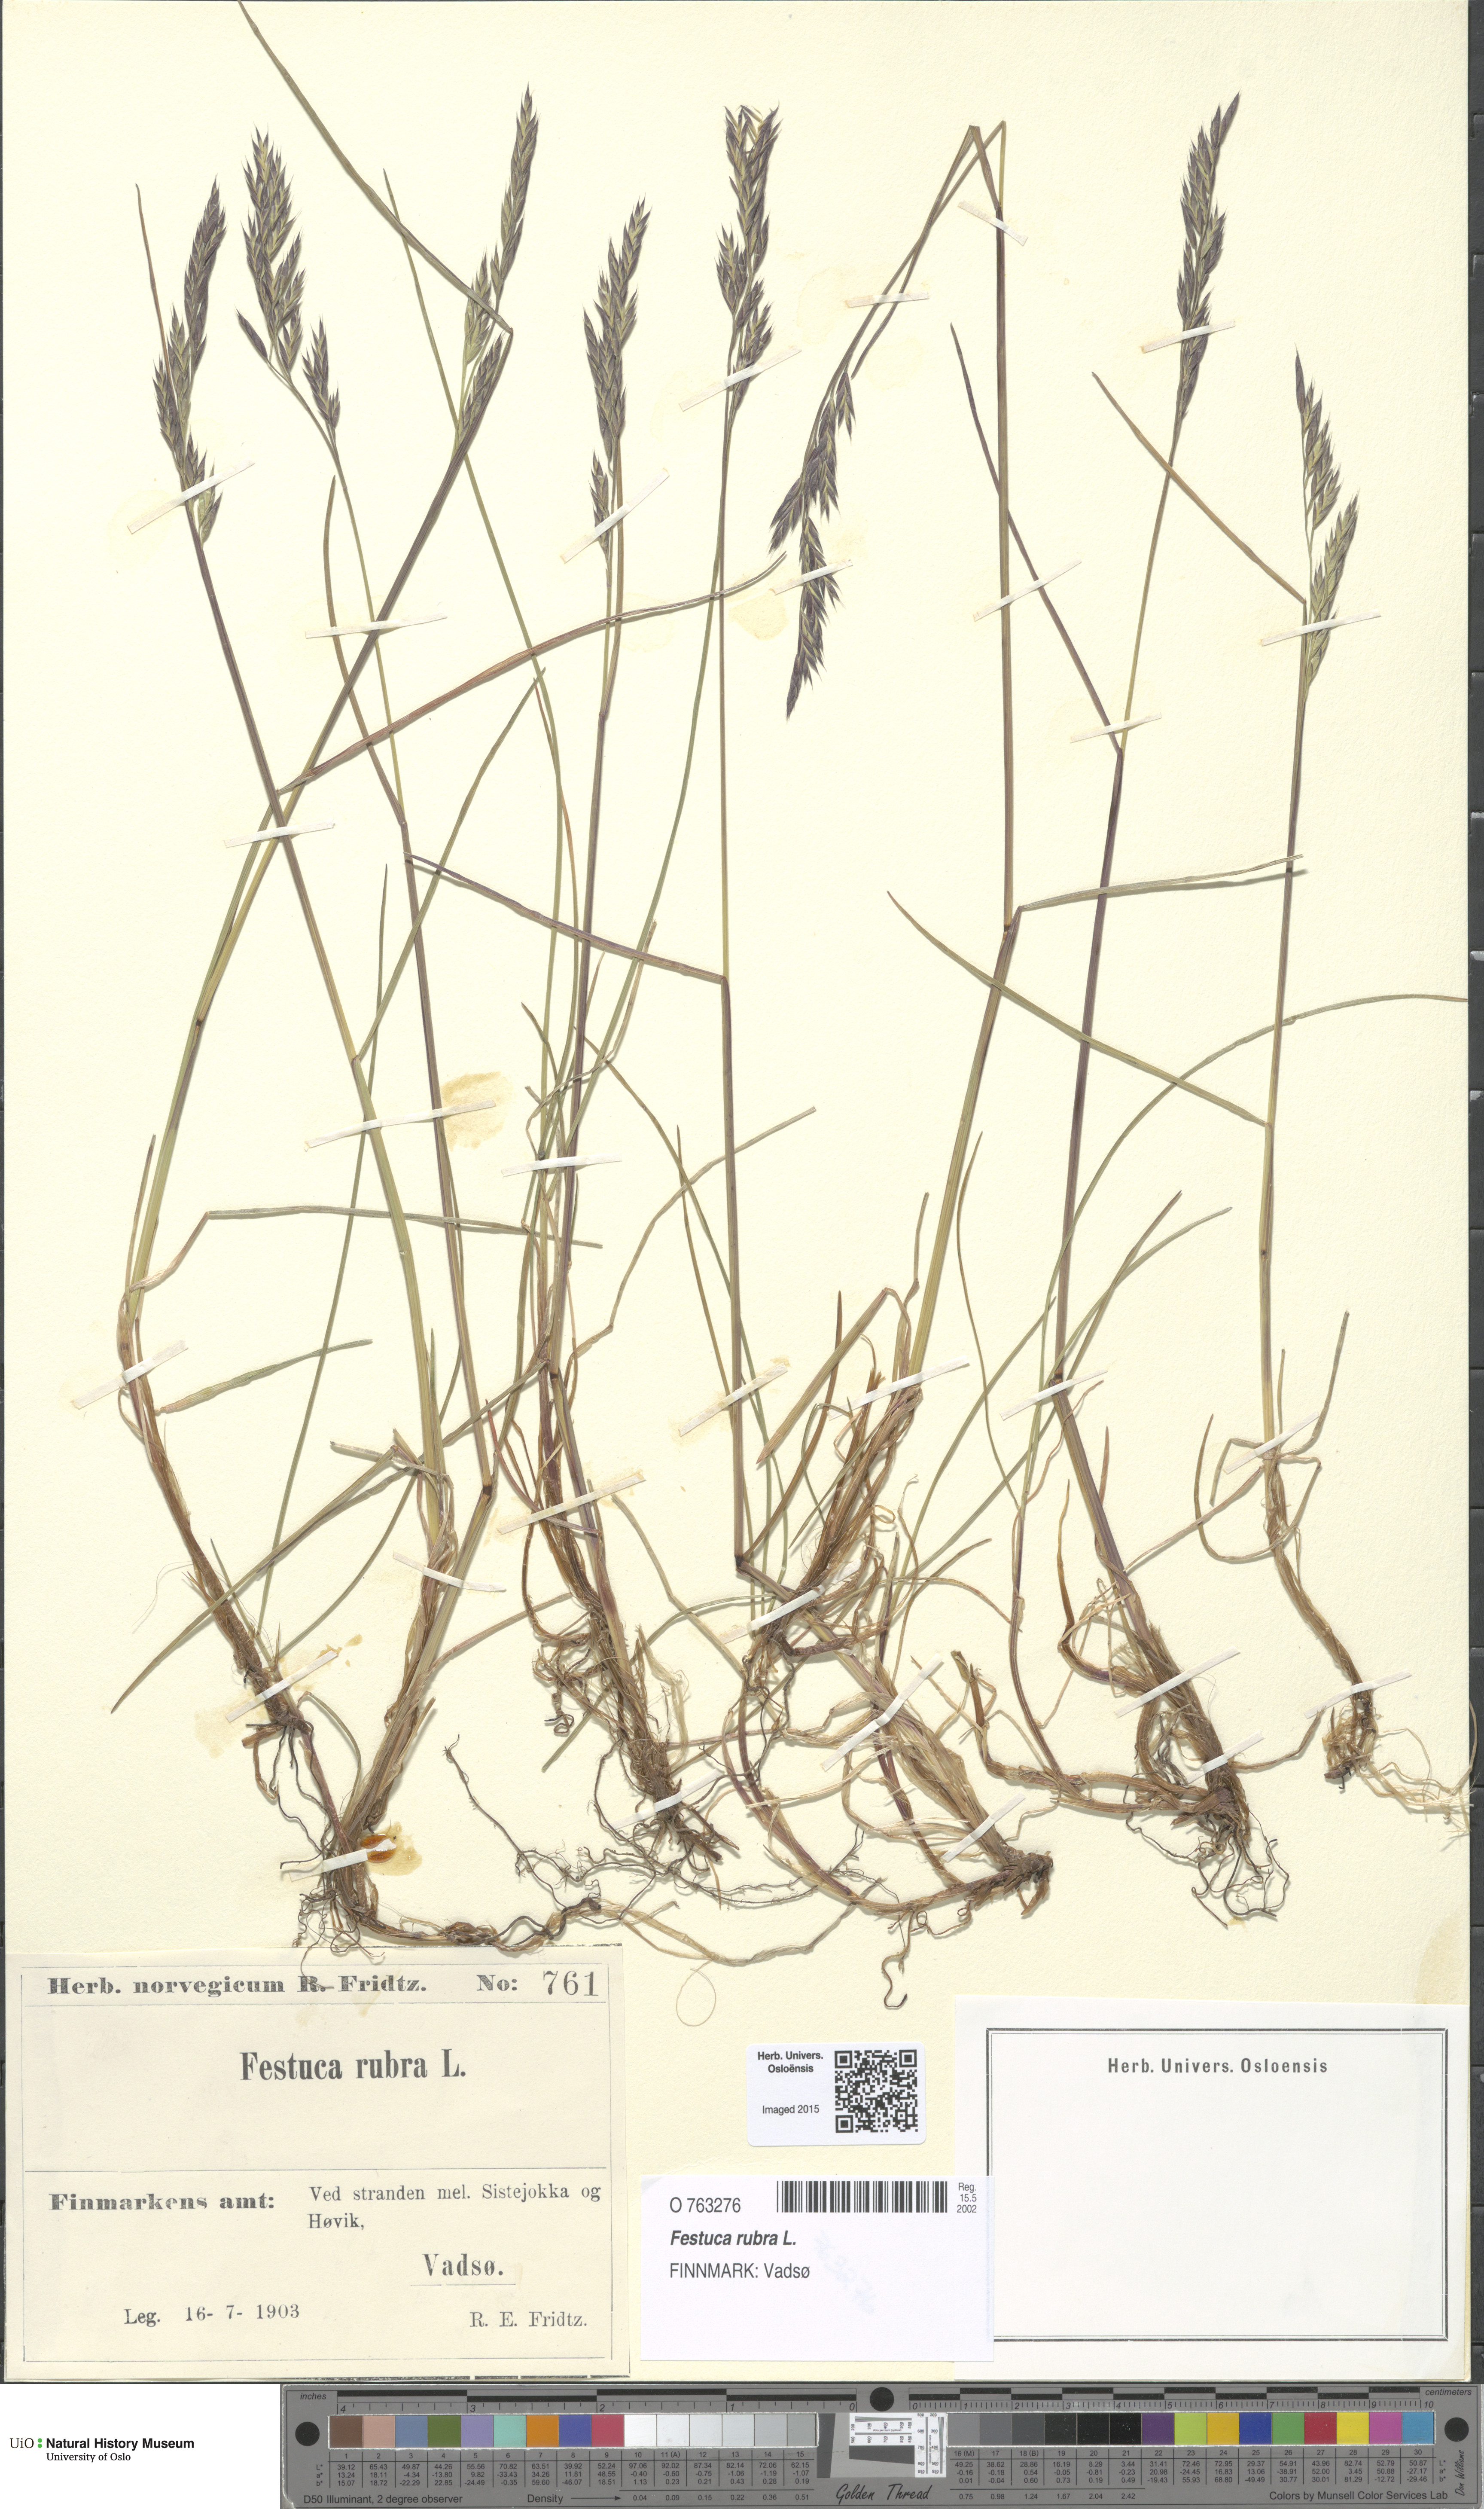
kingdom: Plantae
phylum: Tracheophyta
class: Liliopsida
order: Poales
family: Poaceae
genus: Festuca
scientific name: Festuca rubra
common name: Red fescue
